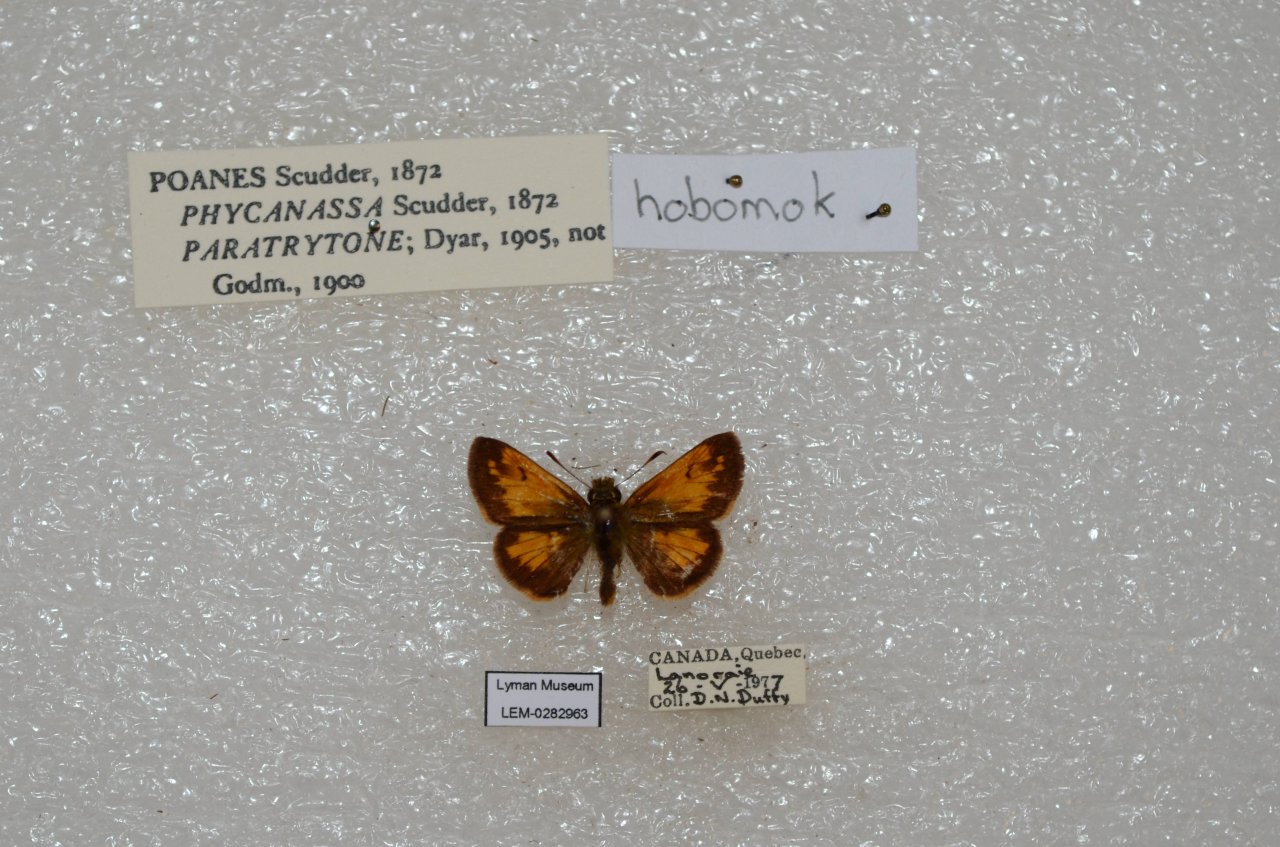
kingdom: Animalia
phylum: Arthropoda
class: Insecta
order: Lepidoptera
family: Hesperiidae
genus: Lon
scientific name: Lon hobomok
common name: Hobomok Skipper
